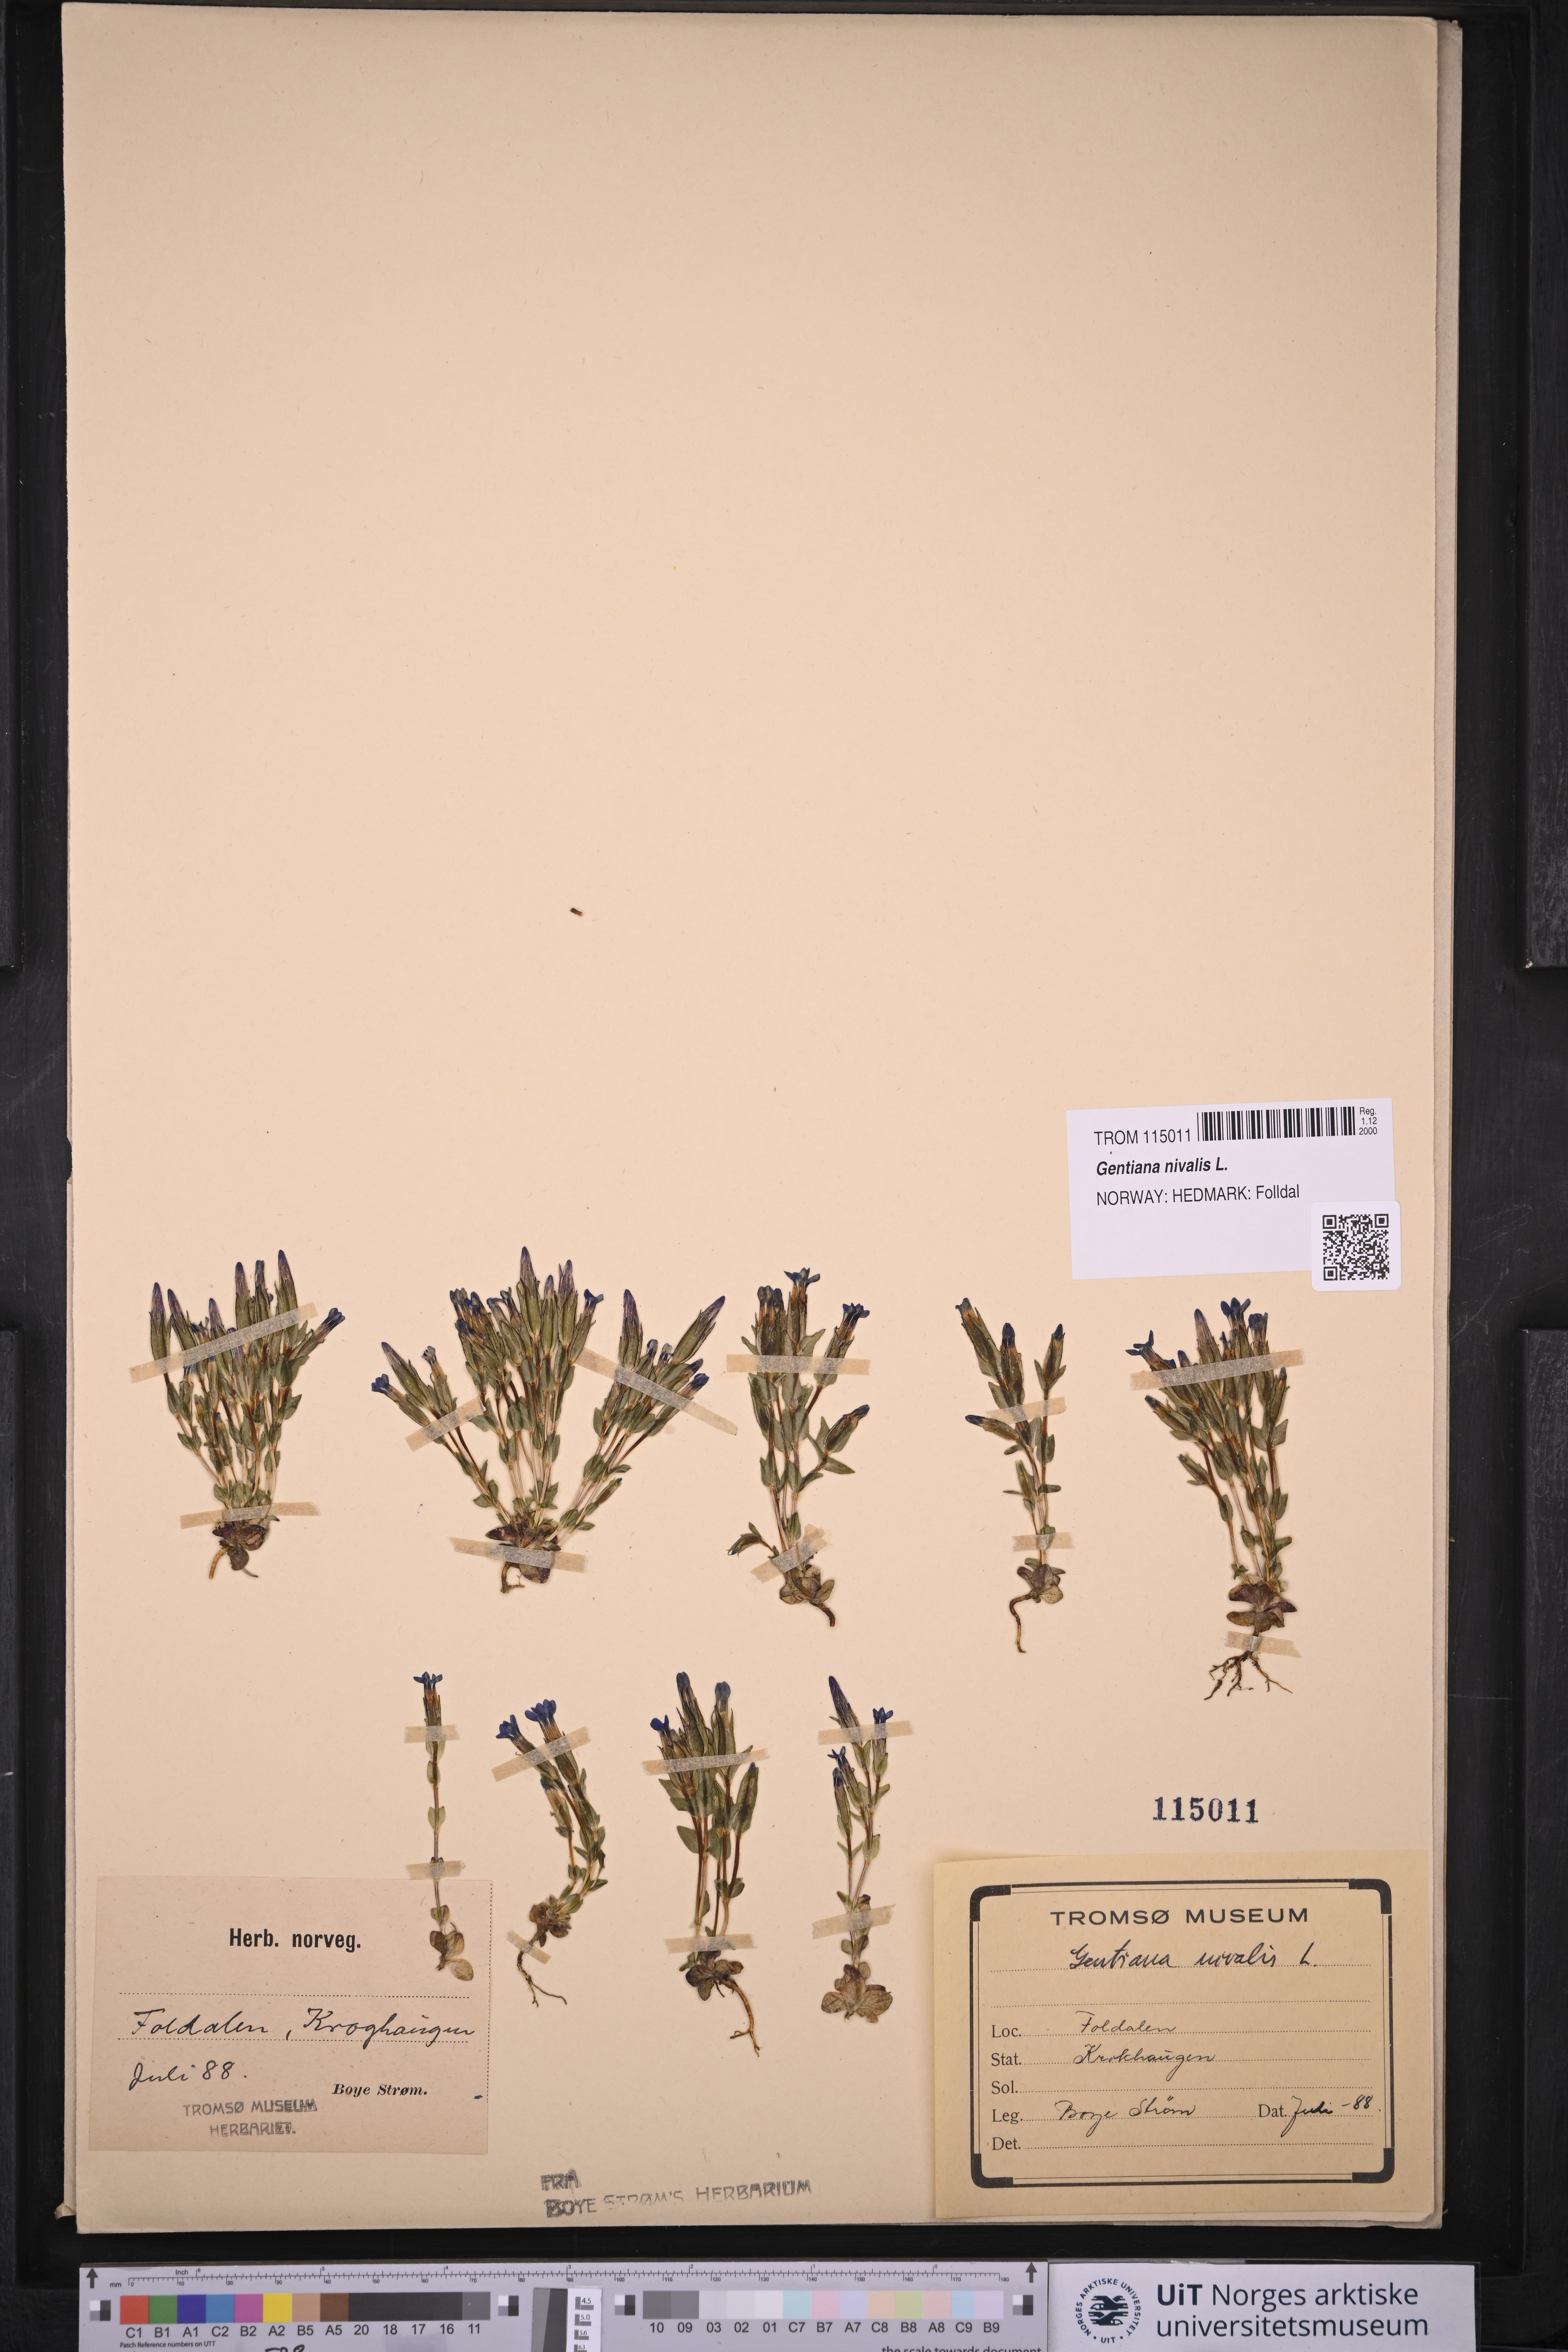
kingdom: Plantae
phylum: Tracheophyta
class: Magnoliopsida
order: Gentianales
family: Gentianaceae
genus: Gentiana
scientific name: Gentiana nivalis
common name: Alpine gentian
